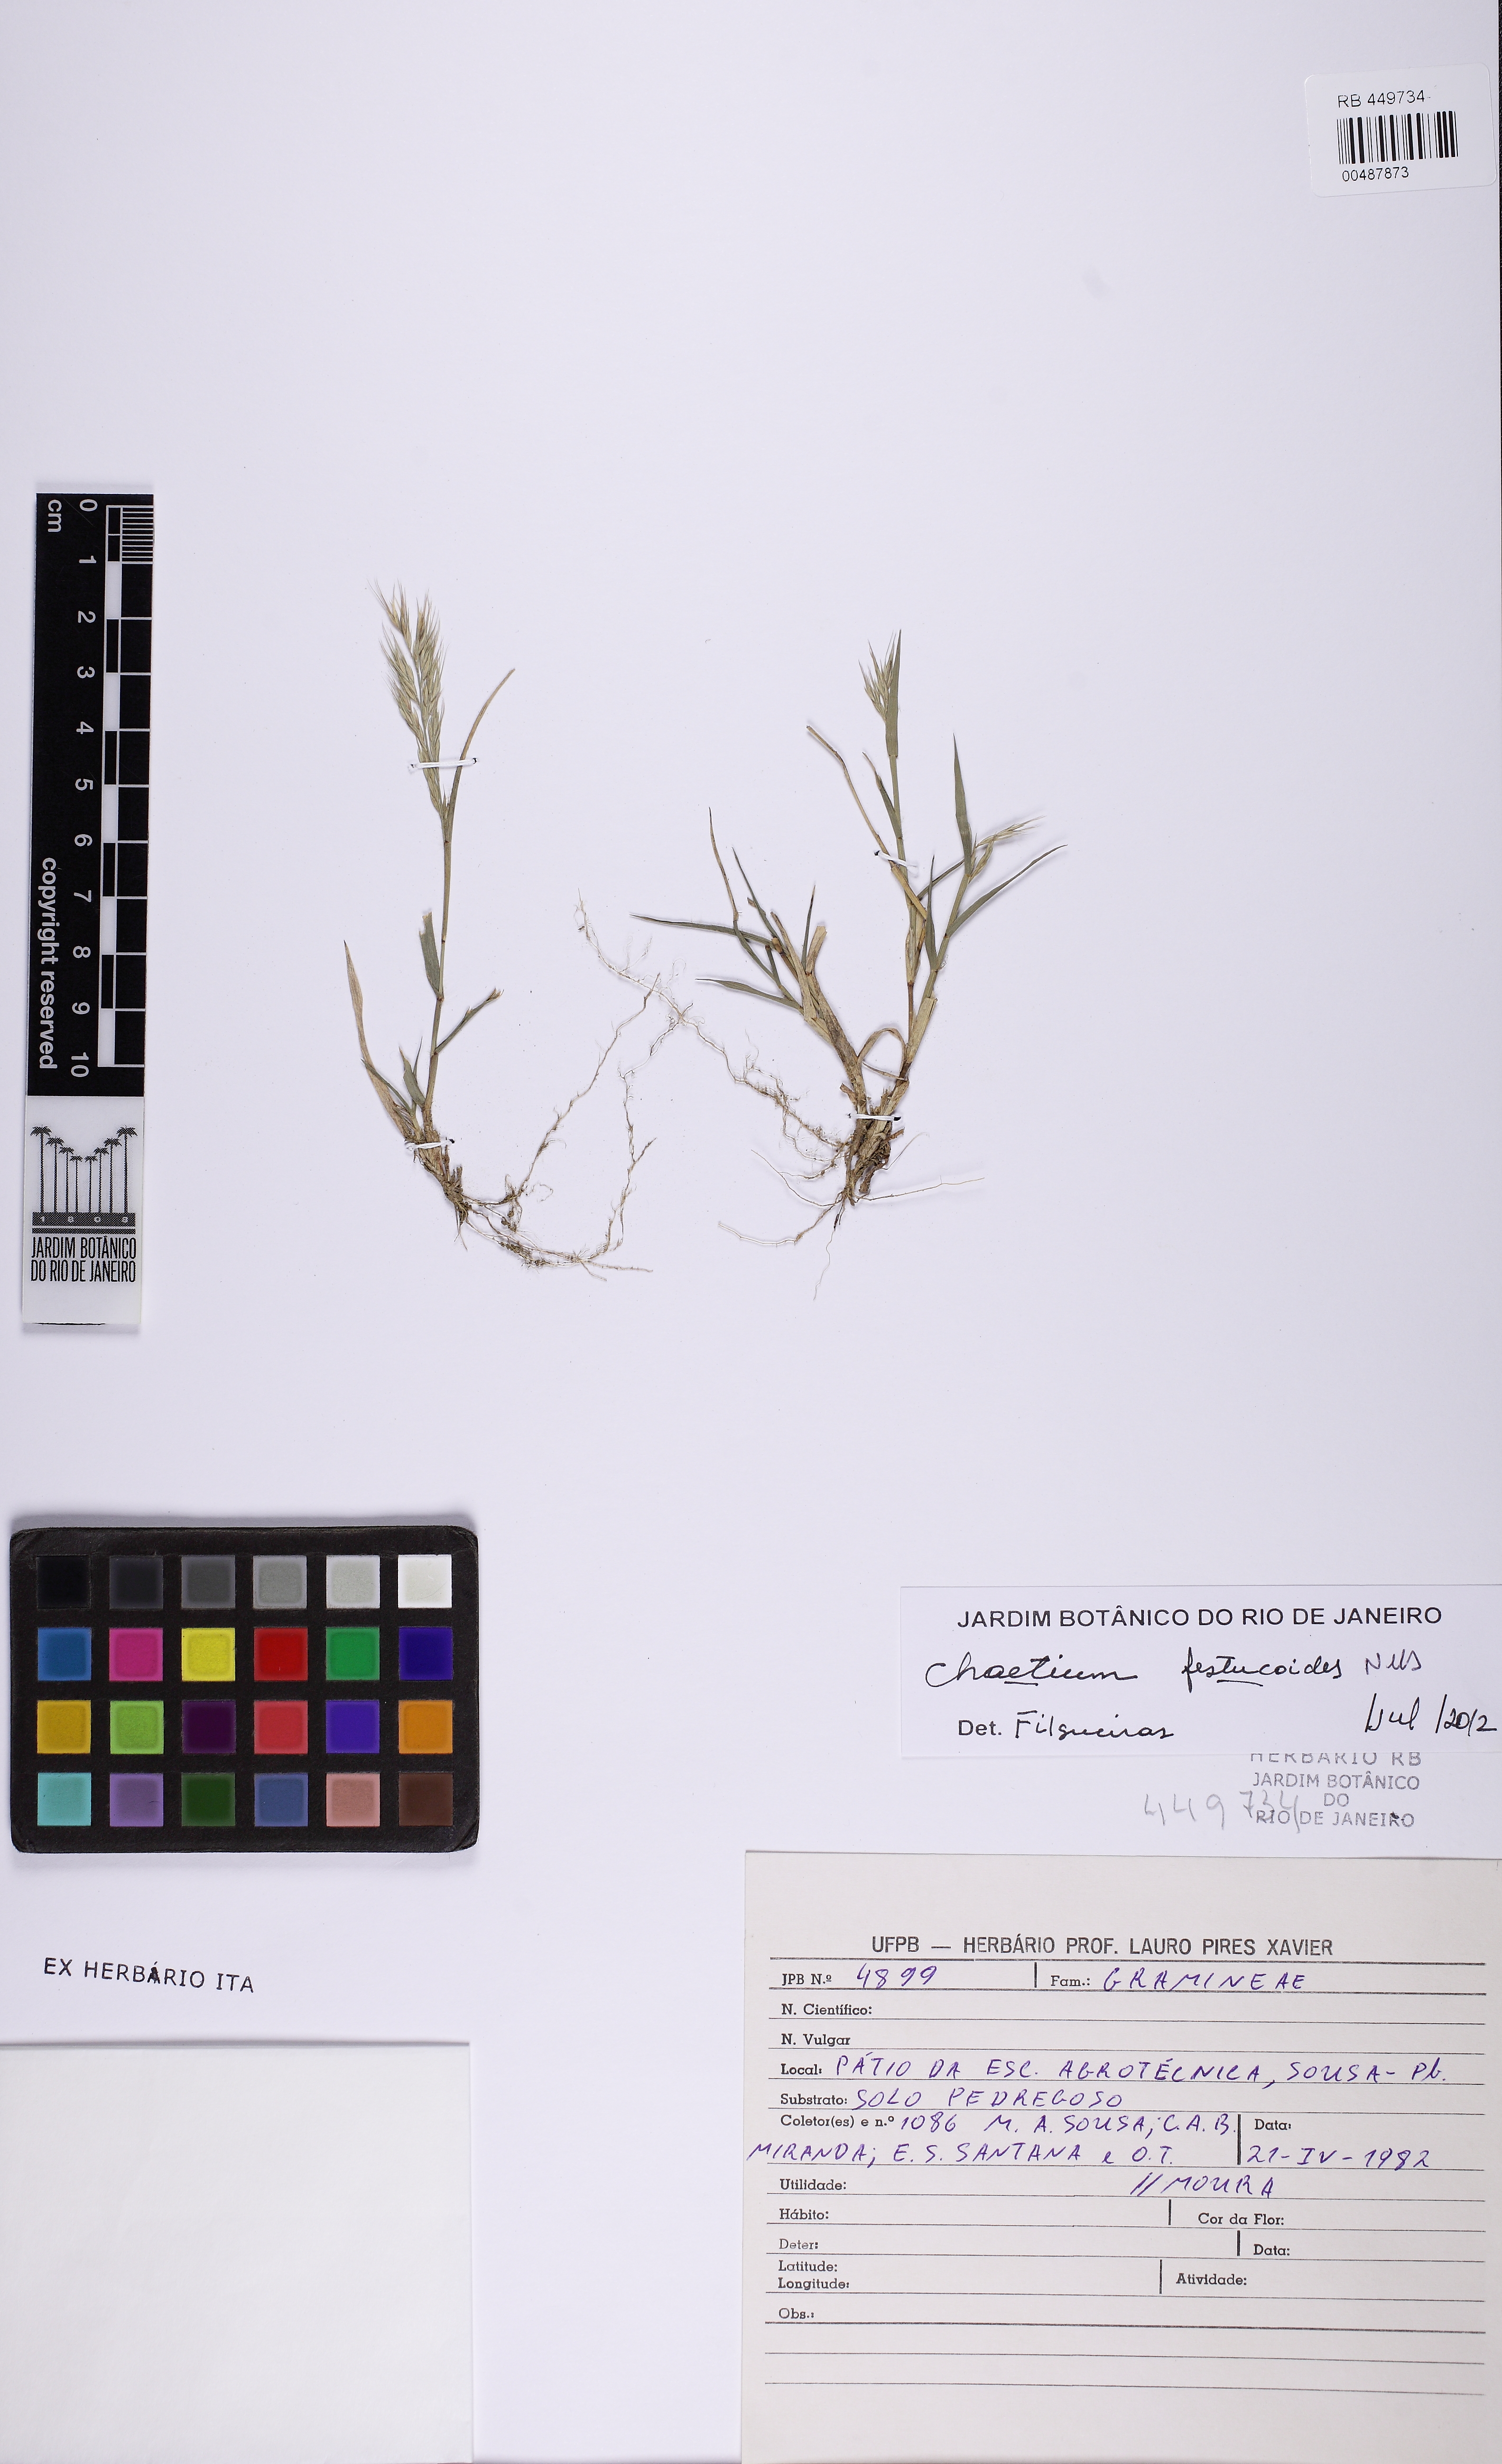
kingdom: Plantae
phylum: Tracheophyta
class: Liliopsida
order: Poales
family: Poaceae
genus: Chaetium
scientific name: Chaetium festucoides
